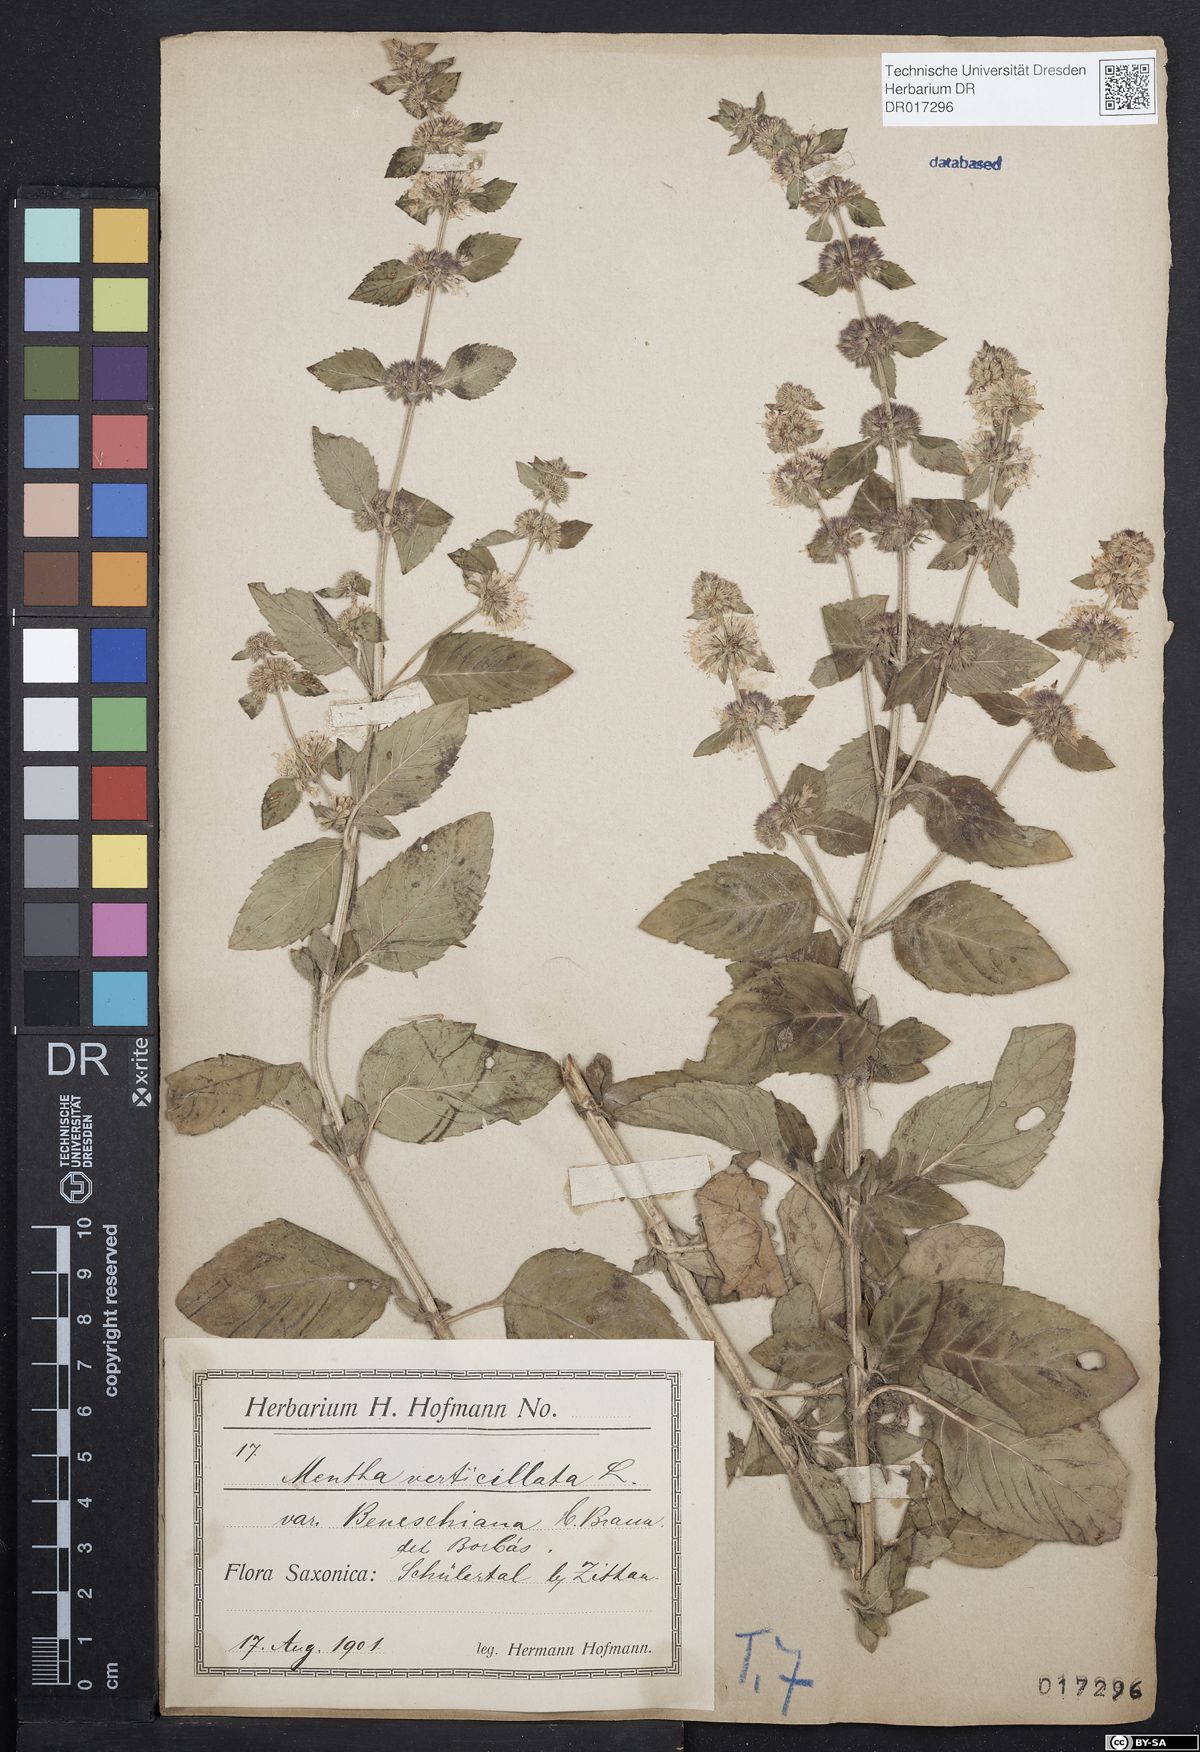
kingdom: Plantae
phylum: Tracheophyta
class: Magnoliopsida
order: Lamiales
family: Lamiaceae
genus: Mentha
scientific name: Mentha verticillata
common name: Mint
